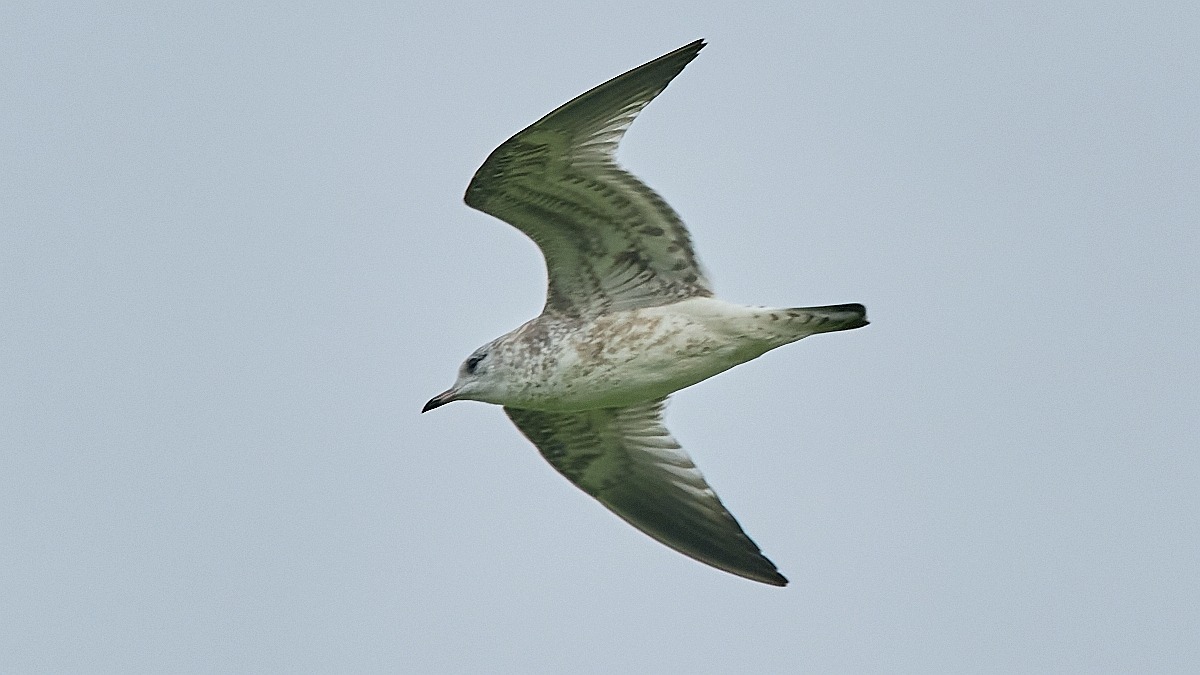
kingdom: Animalia
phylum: Chordata
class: Aves
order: Charadriiformes
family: Laridae
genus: Larus
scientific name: Larus canus
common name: Stormmåge
